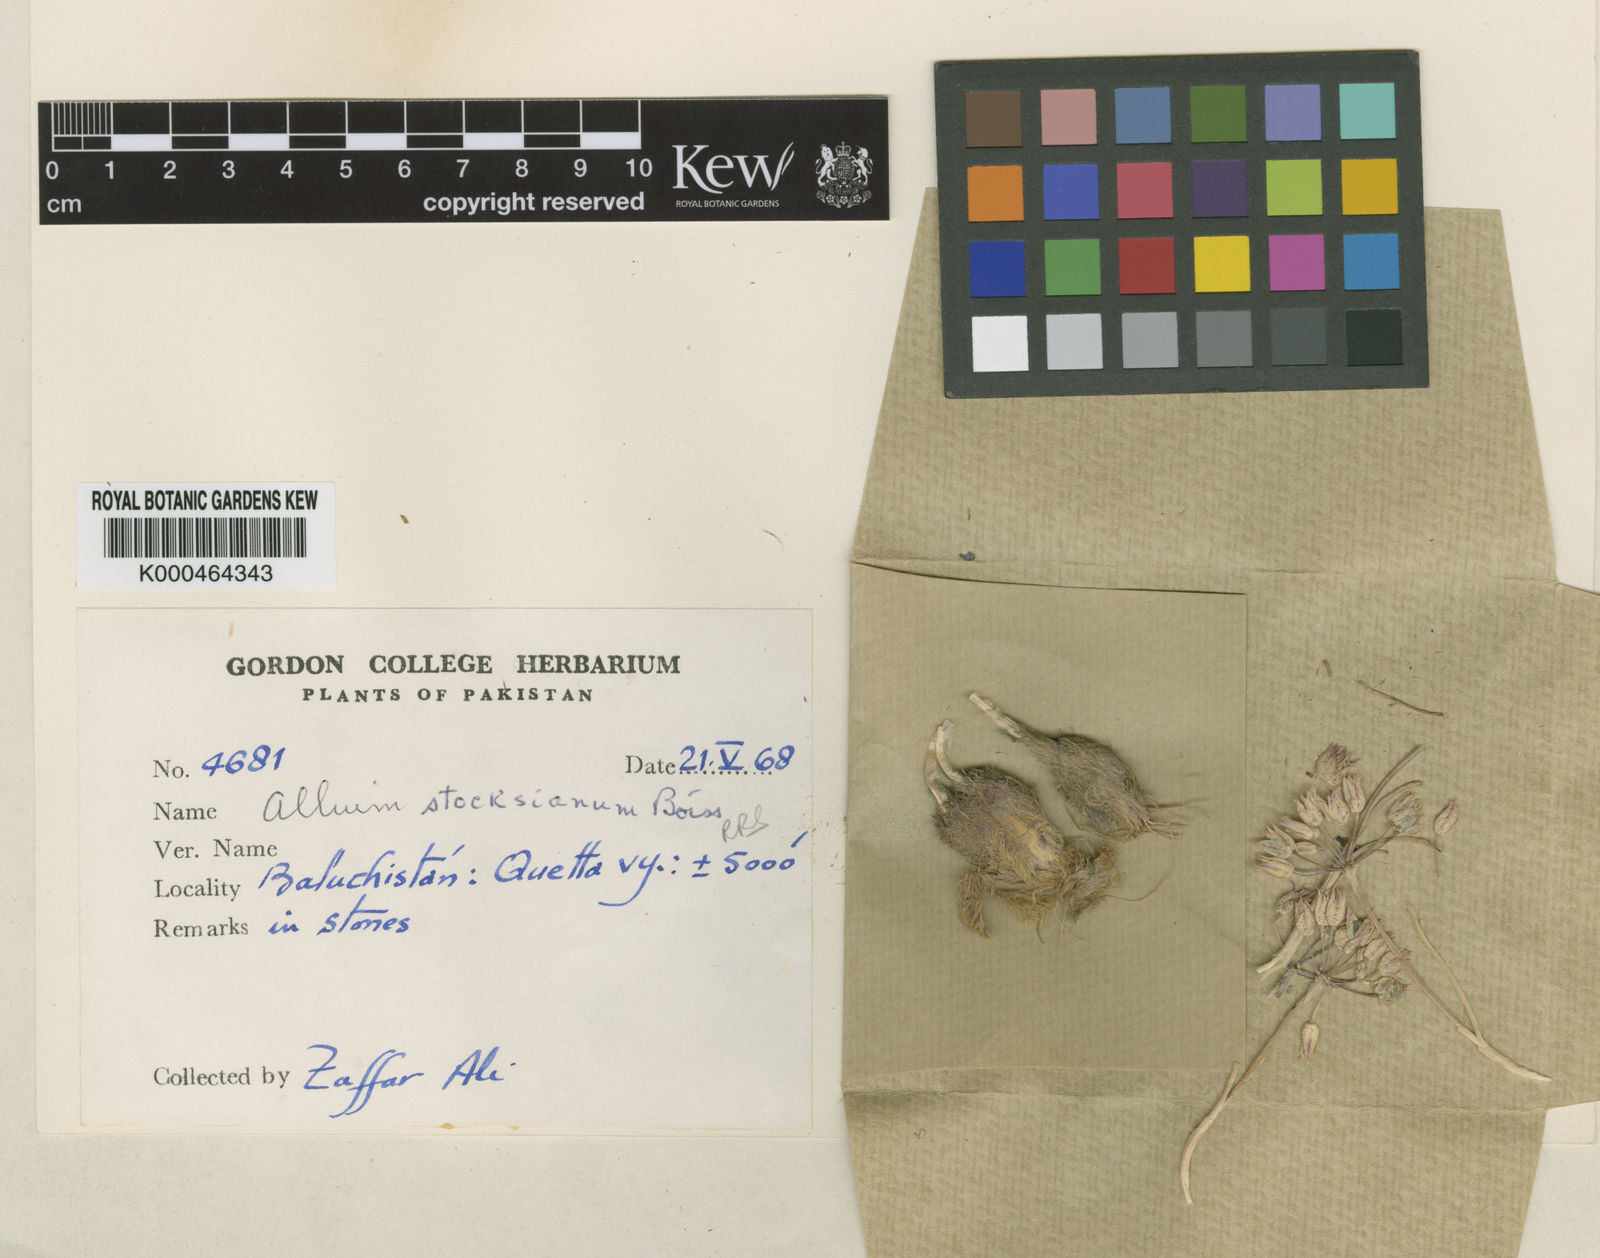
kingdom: Plantae
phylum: Tracheophyta
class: Liliopsida
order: Asparagales
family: Amaryllidaceae
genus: Allium
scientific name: Allium stocksianum
